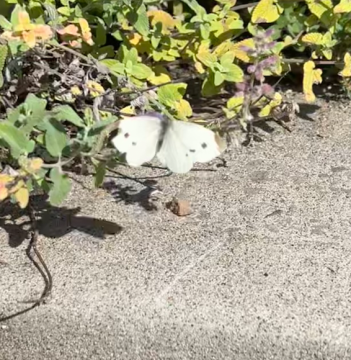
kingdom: Animalia
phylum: Arthropoda
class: Insecta
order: Lepidoptera
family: Pieridae
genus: Pieris
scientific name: Pieris rapae
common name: Cabbage White
